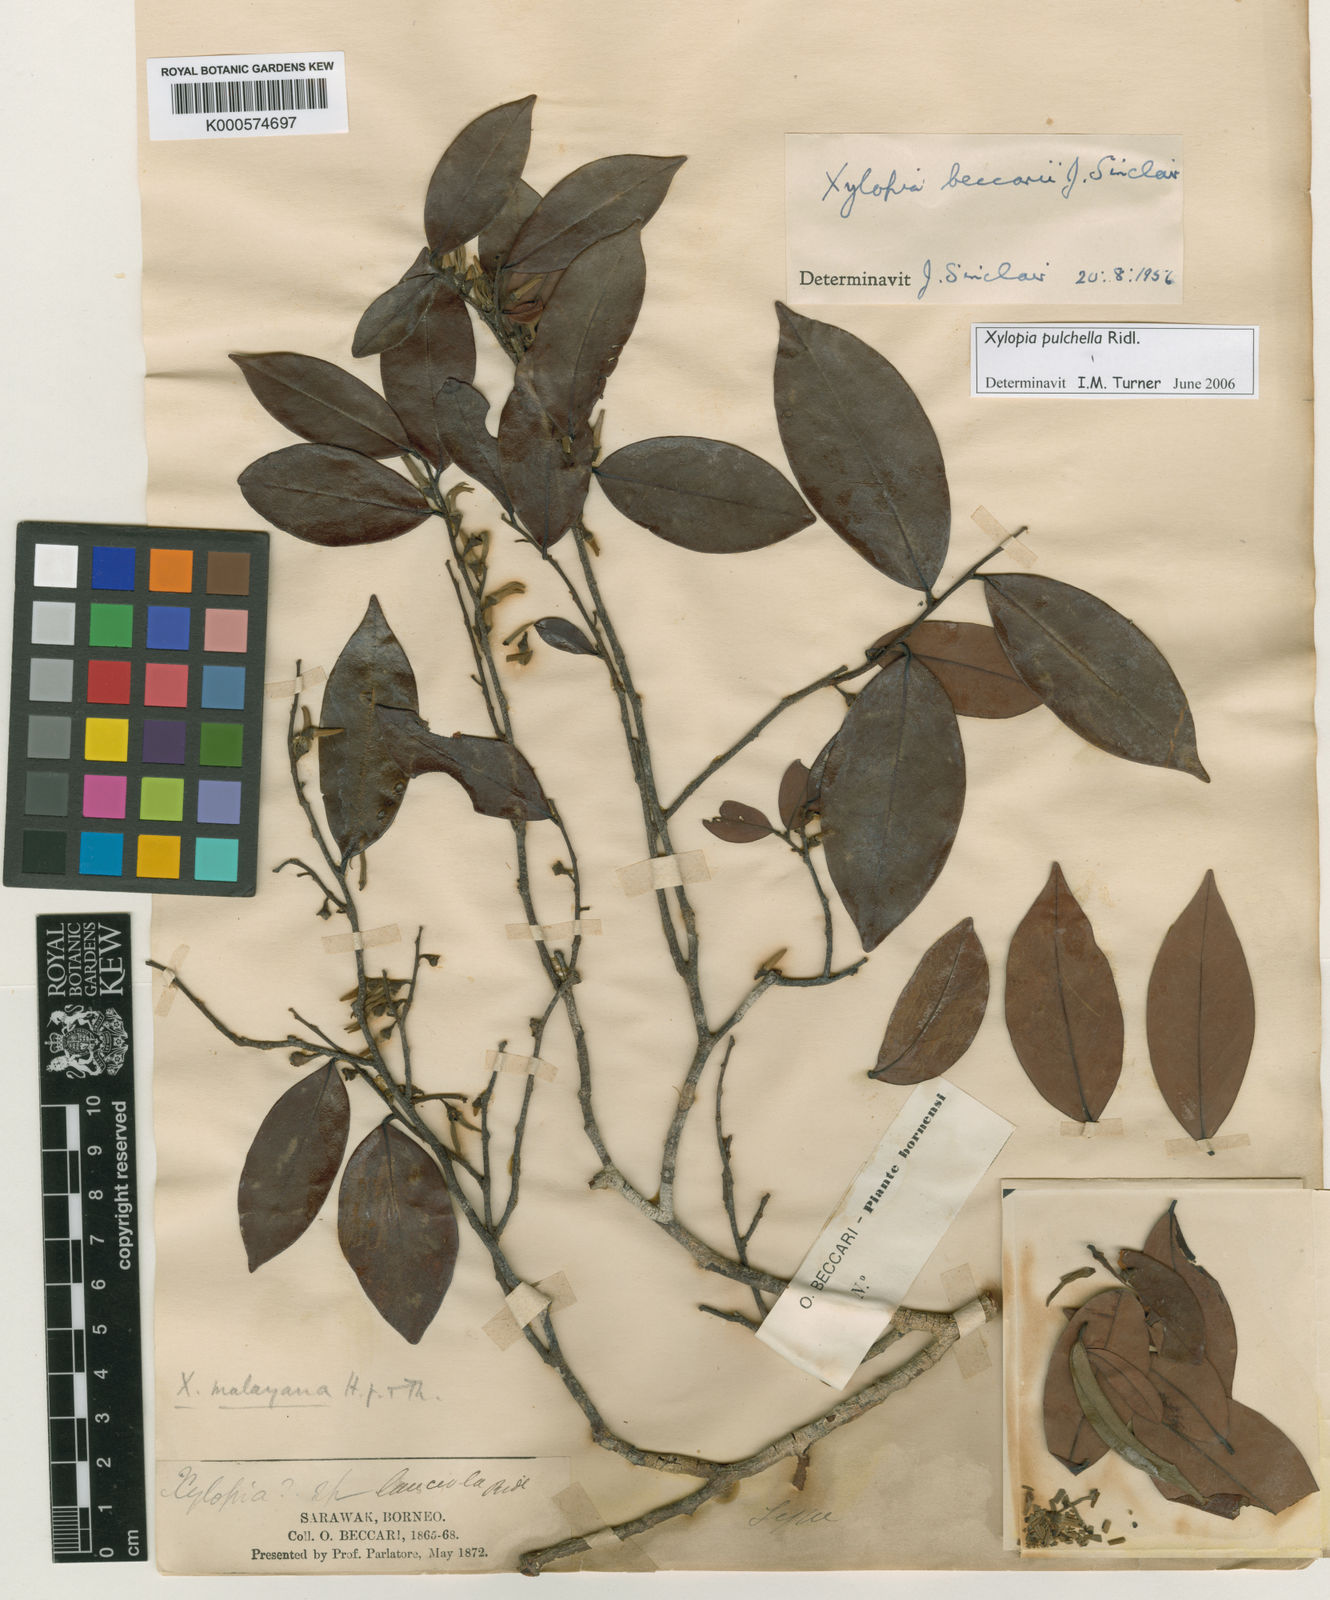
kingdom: Plantae
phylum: Tracheophyta
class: Magnoliopsida
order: Magnoliales
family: Annonaceae
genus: Xylopia
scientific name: Xylopia beccarii
